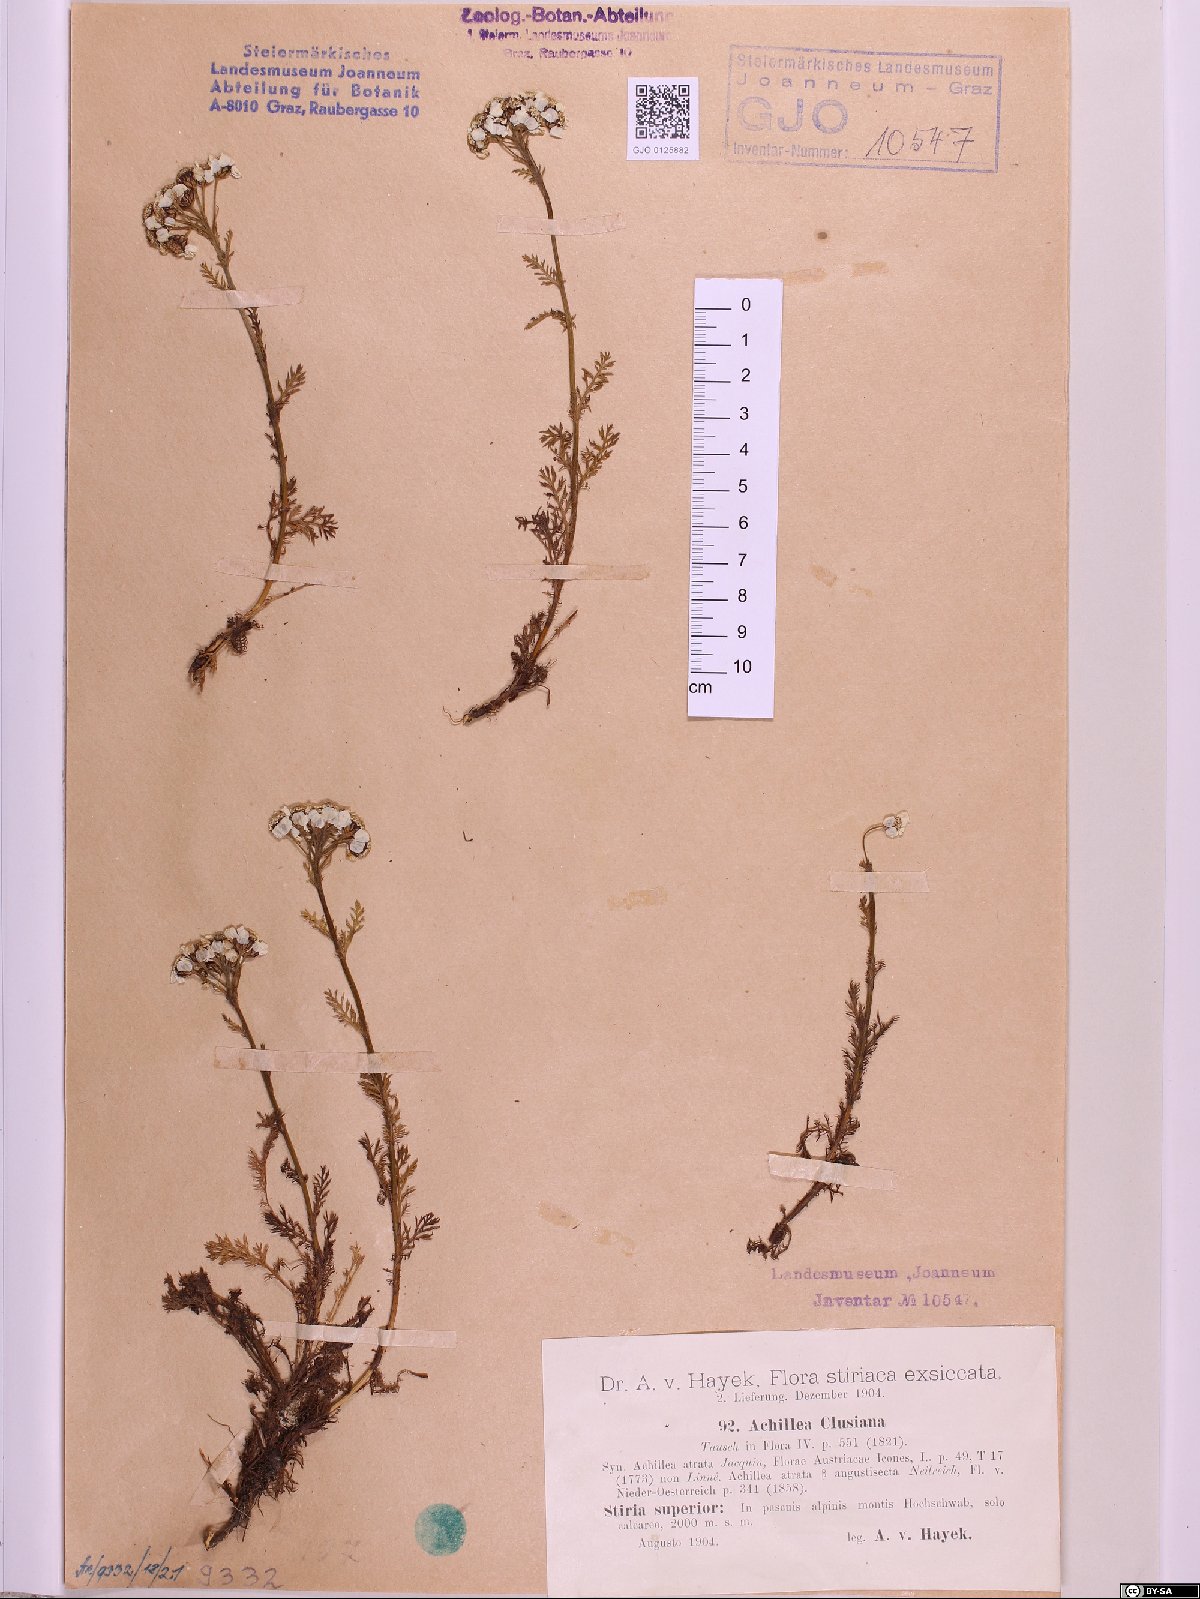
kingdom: Plantae
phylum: Tracheophyta
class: Magnoliopsida
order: Asterales
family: Asteraceae
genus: Achillea
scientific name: Achillea clusiana
